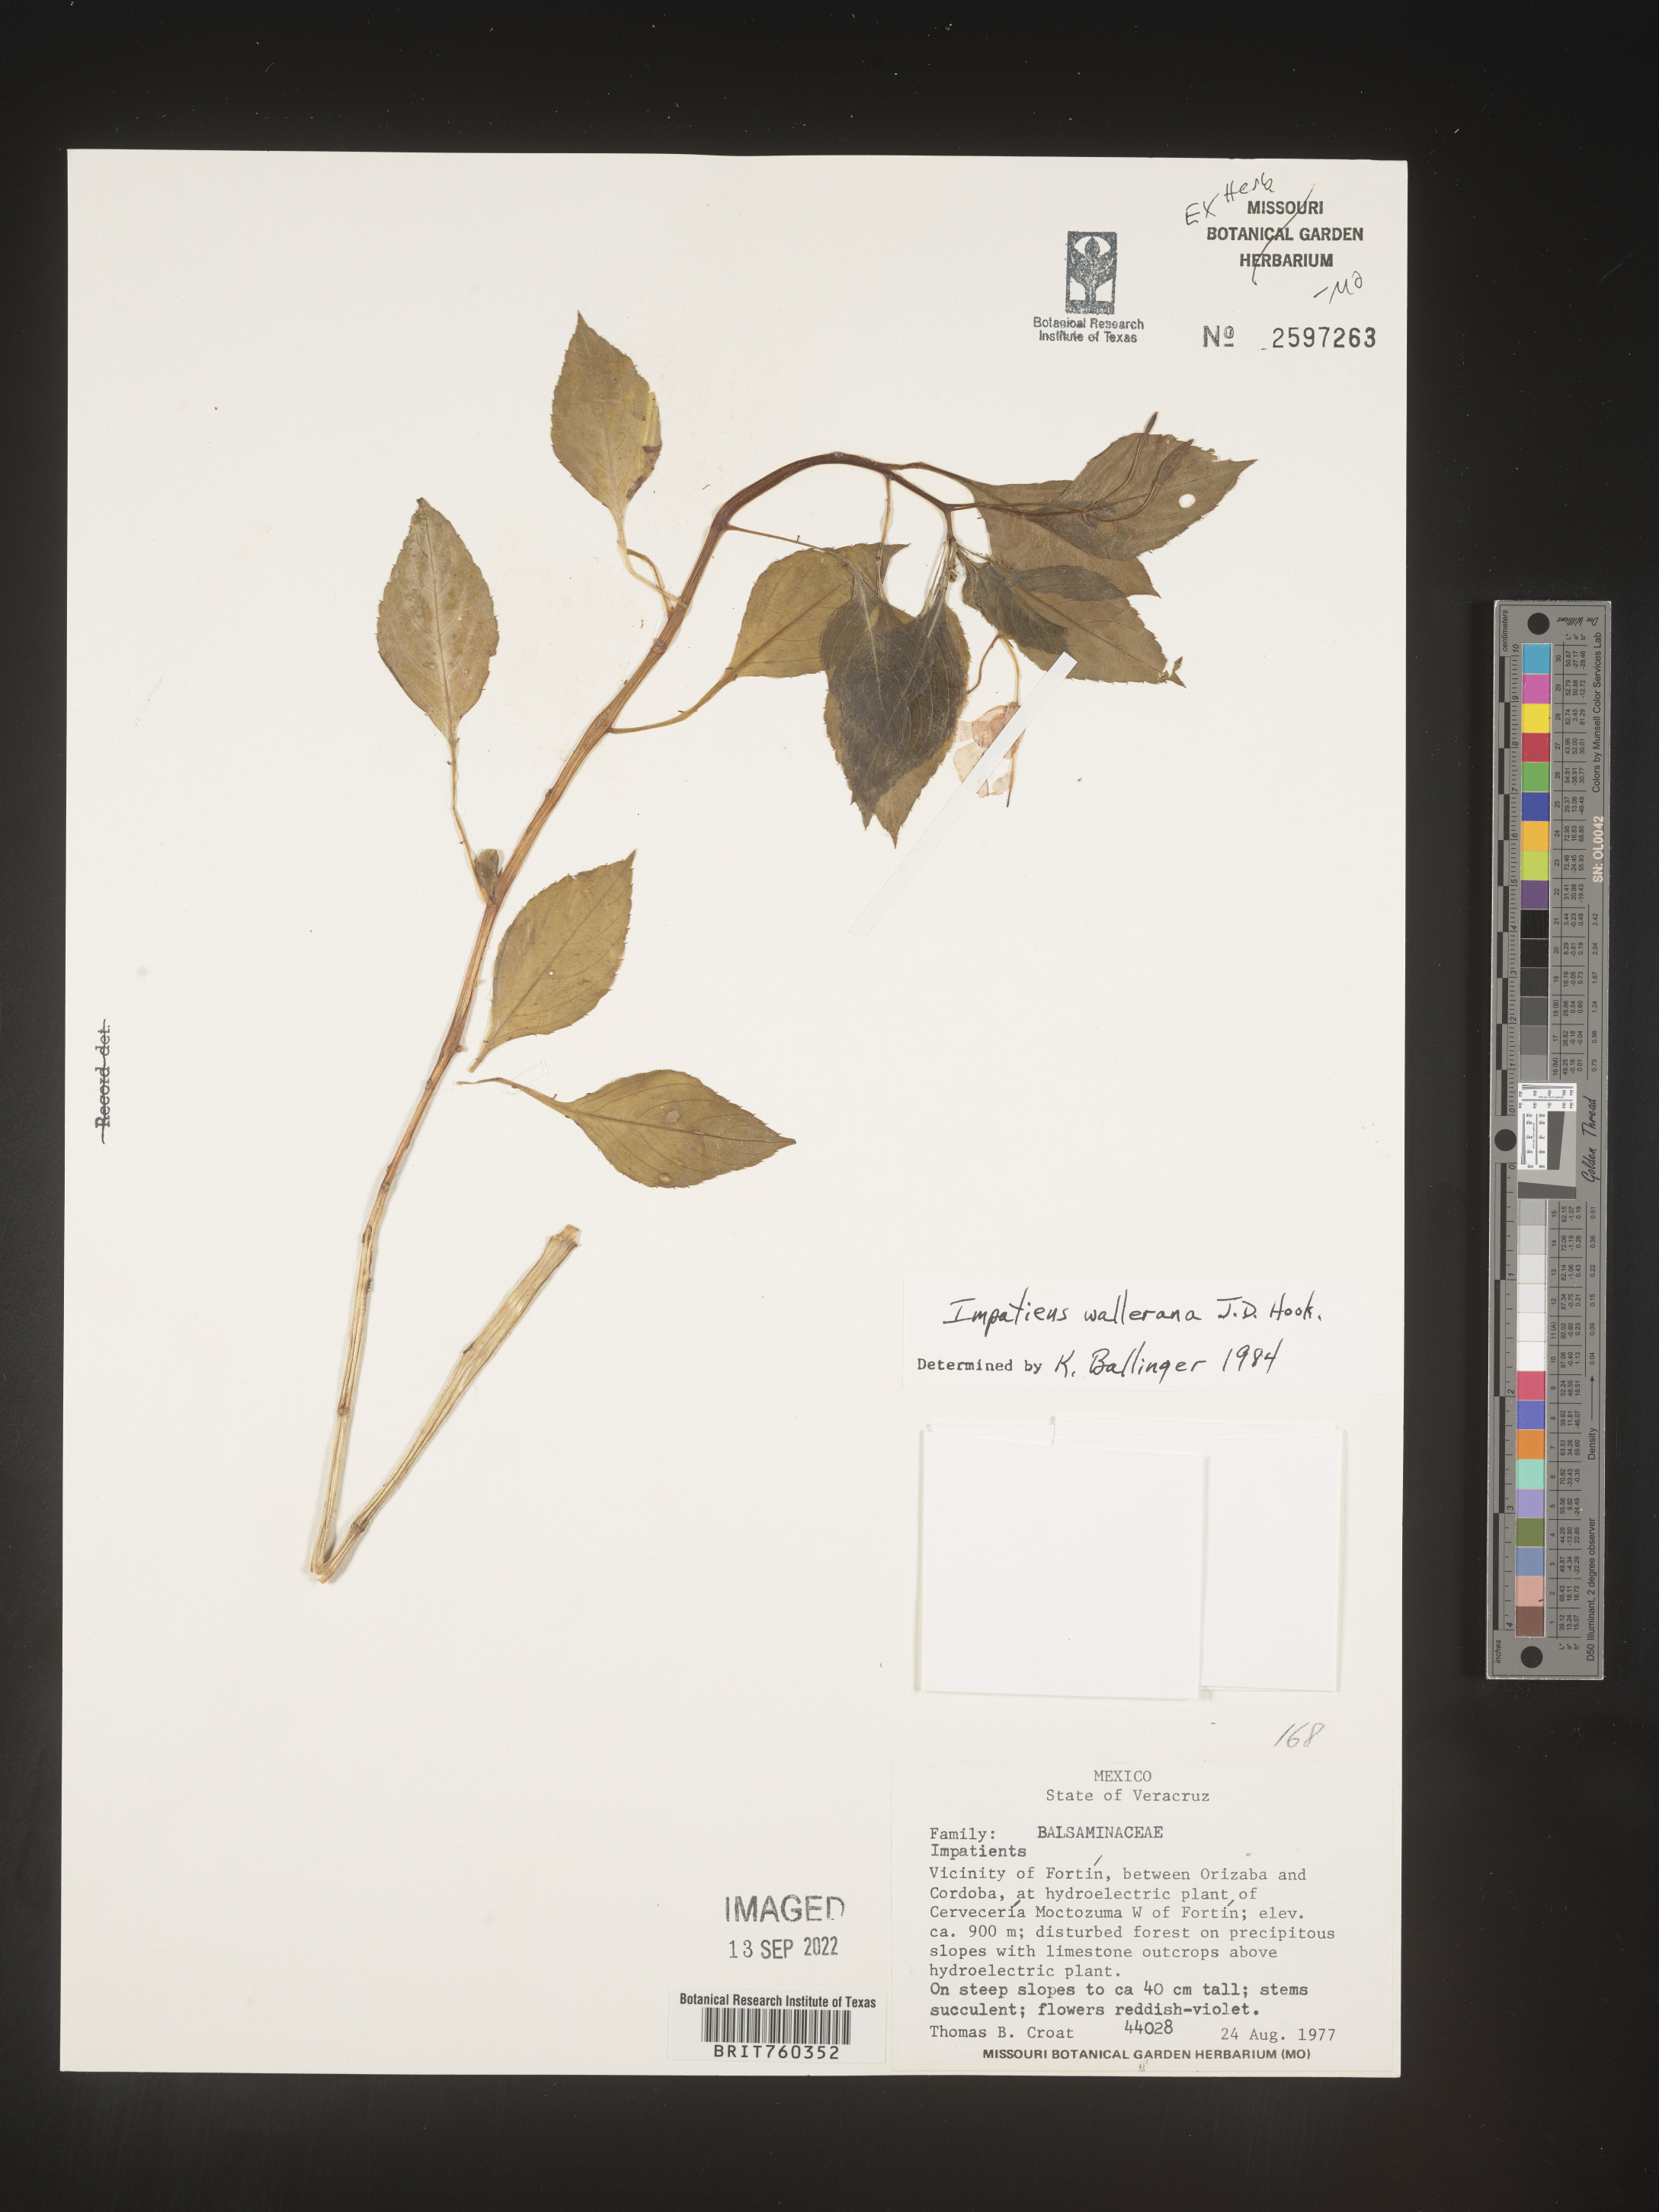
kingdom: Plantae
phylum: Tracheophyta
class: Magnoliopsida
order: Ericales
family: Balsaminaceae
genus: Impatiens
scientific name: Impatiens
